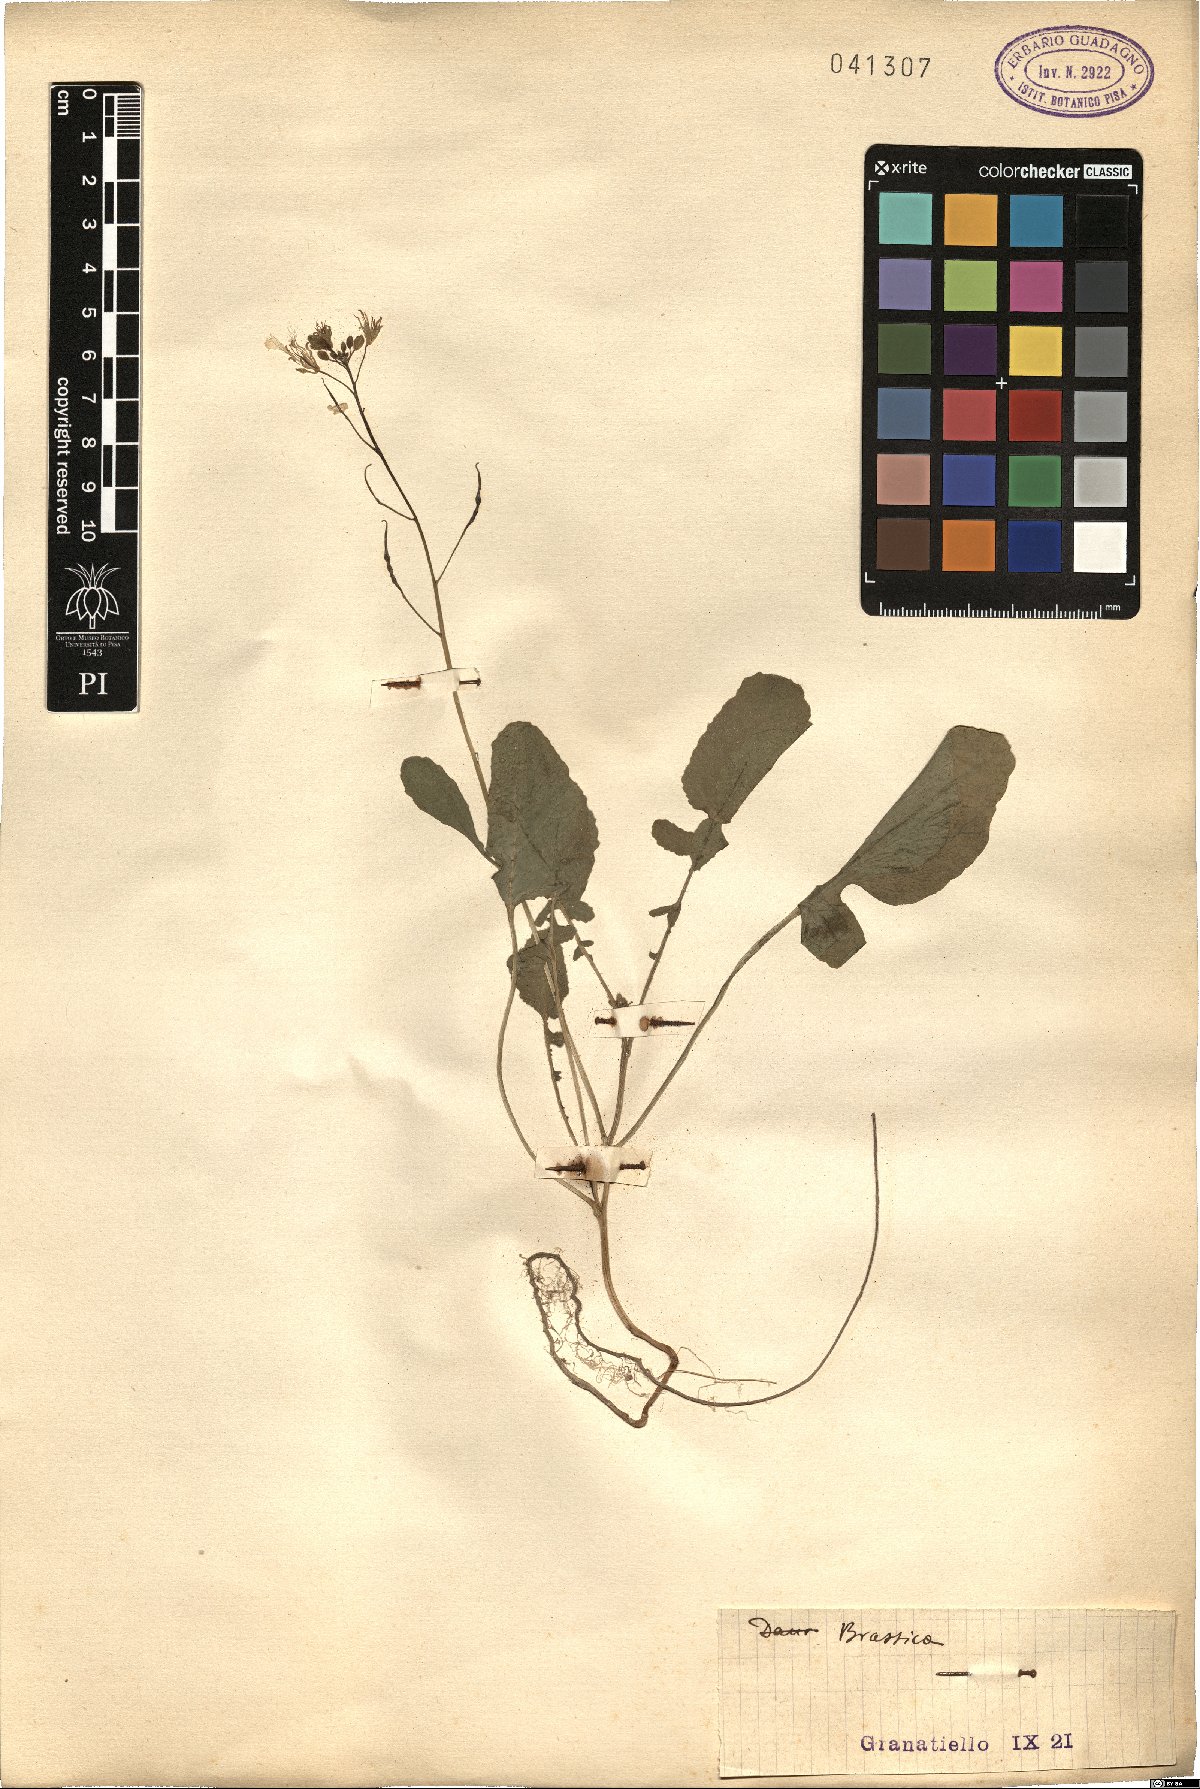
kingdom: Plantae
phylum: Tracheophyta
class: Magnoliopsida
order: Brassicales
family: Brassicaceae
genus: Brassica
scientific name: Brassica
